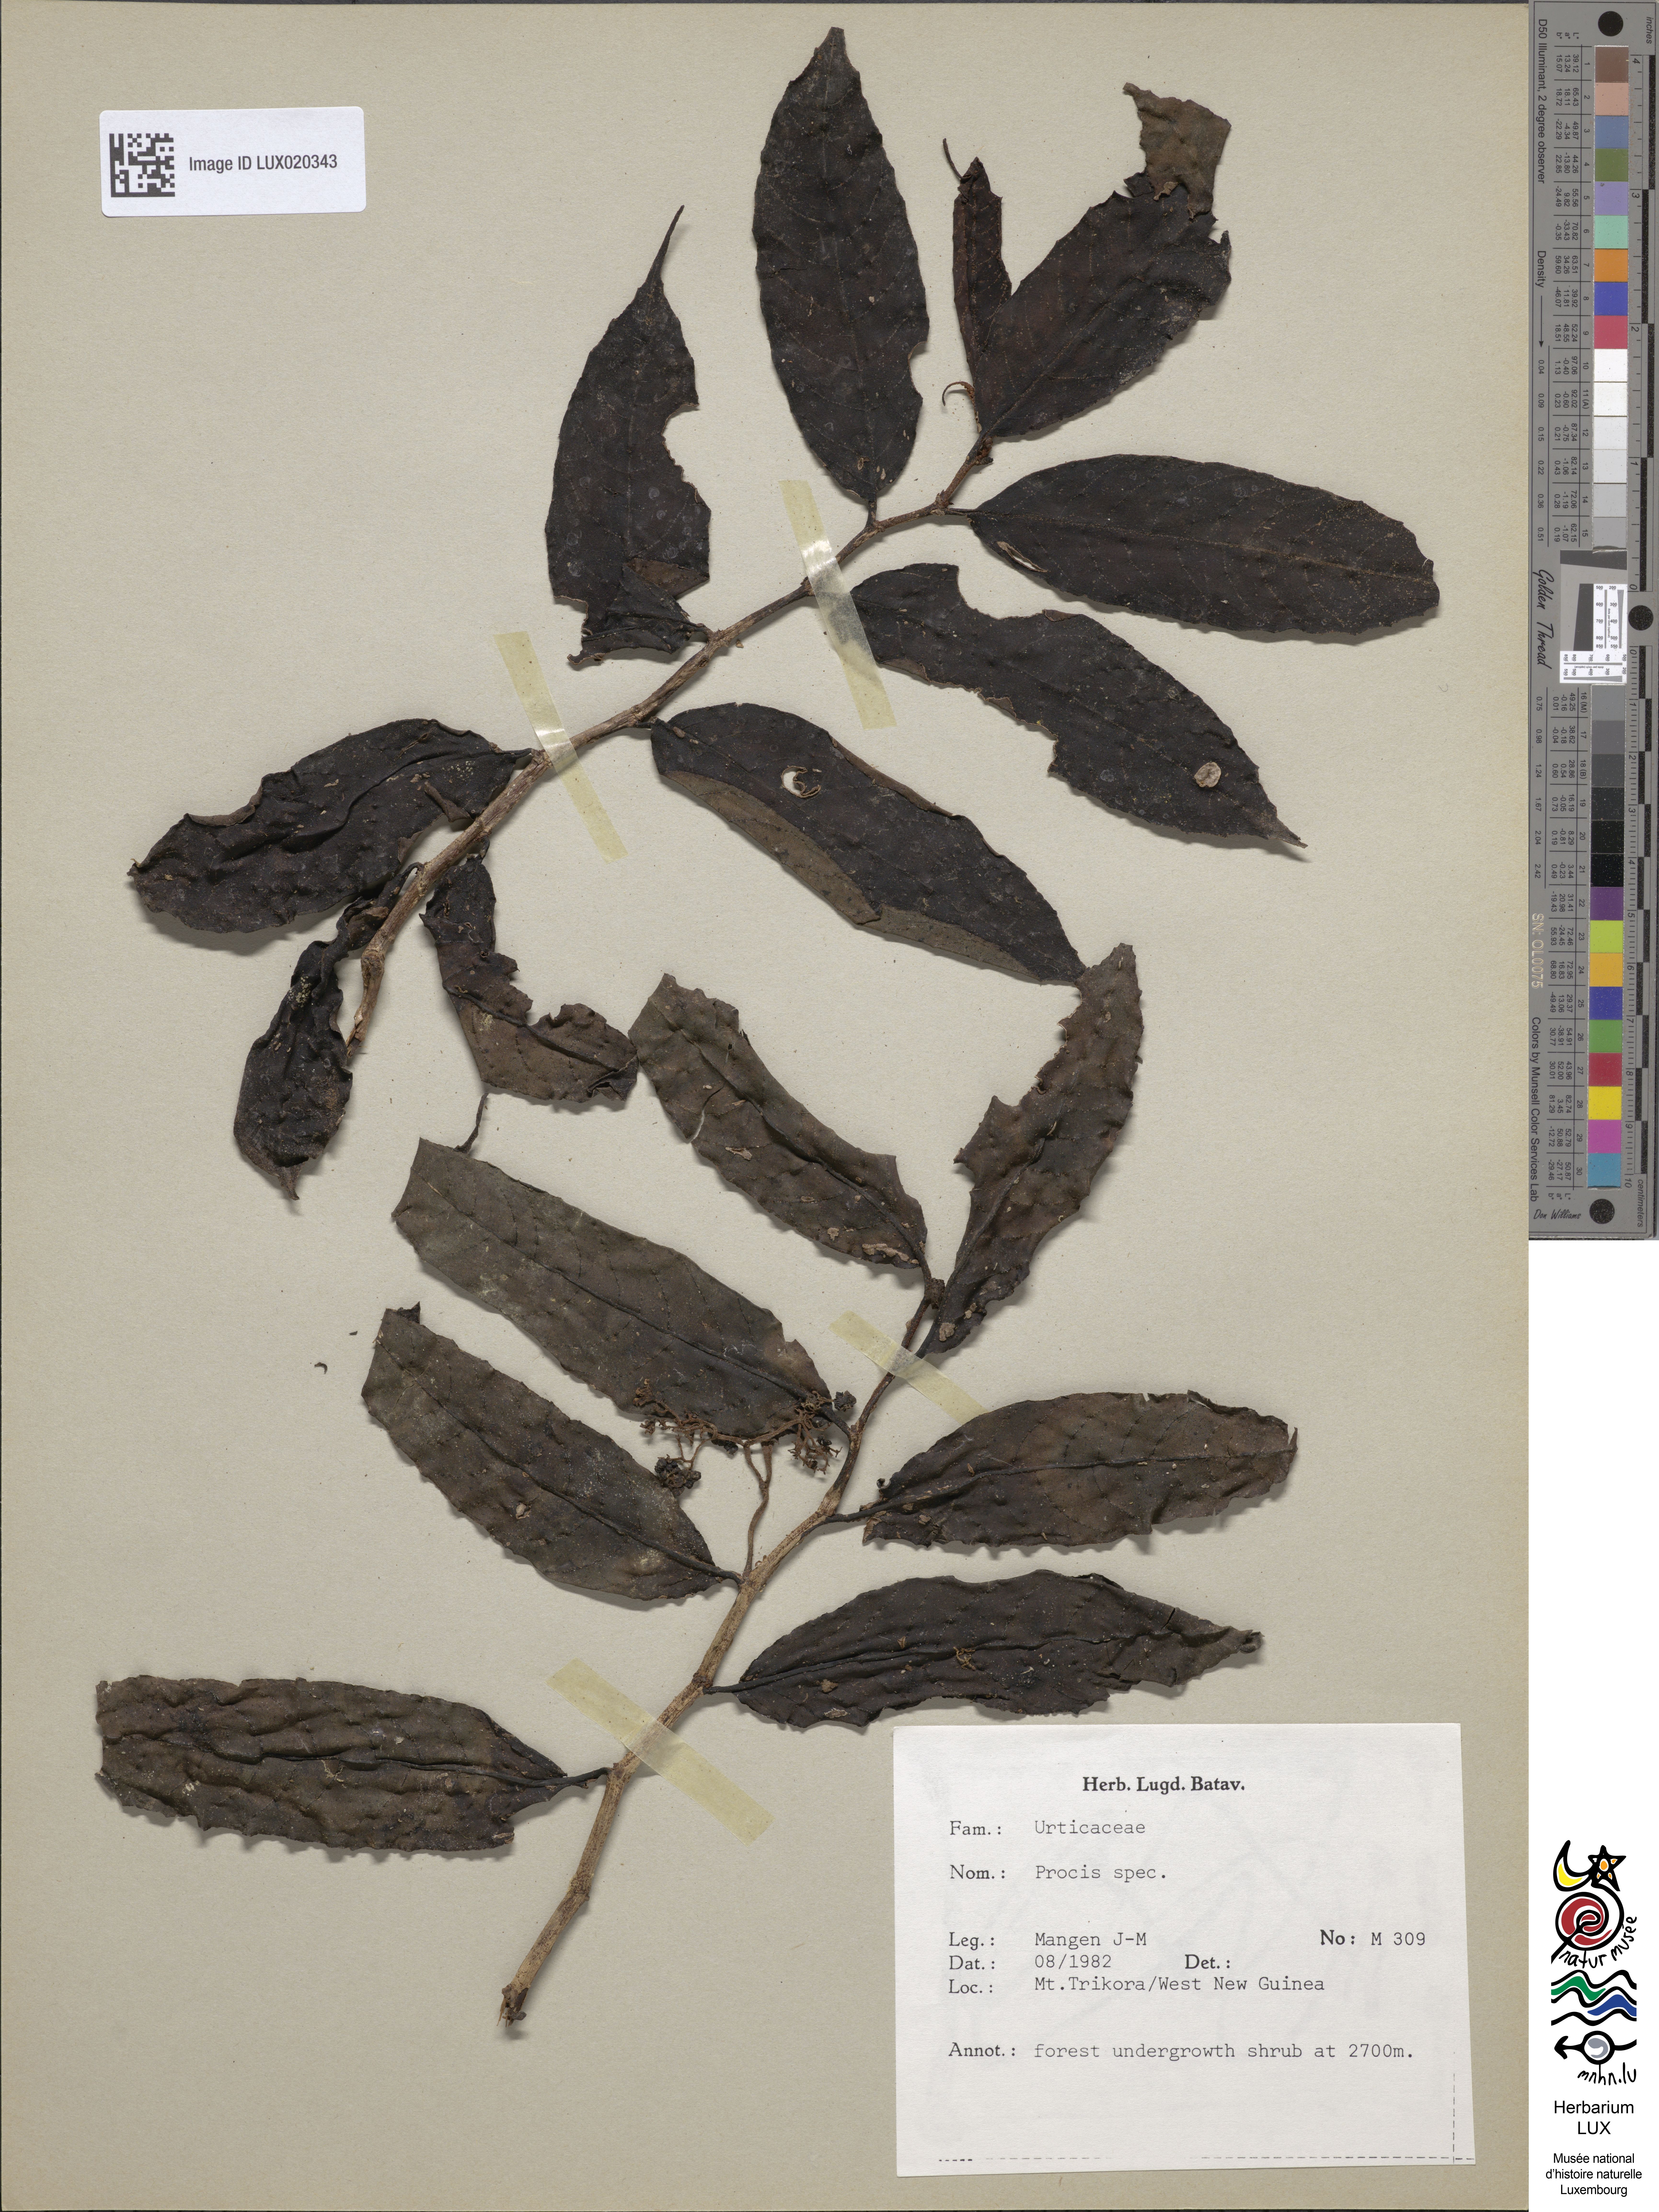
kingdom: Animalia
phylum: Arthropoda
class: Insecta
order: Lepidoptera
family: Zygaenidae
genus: Adscita
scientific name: Adscita
